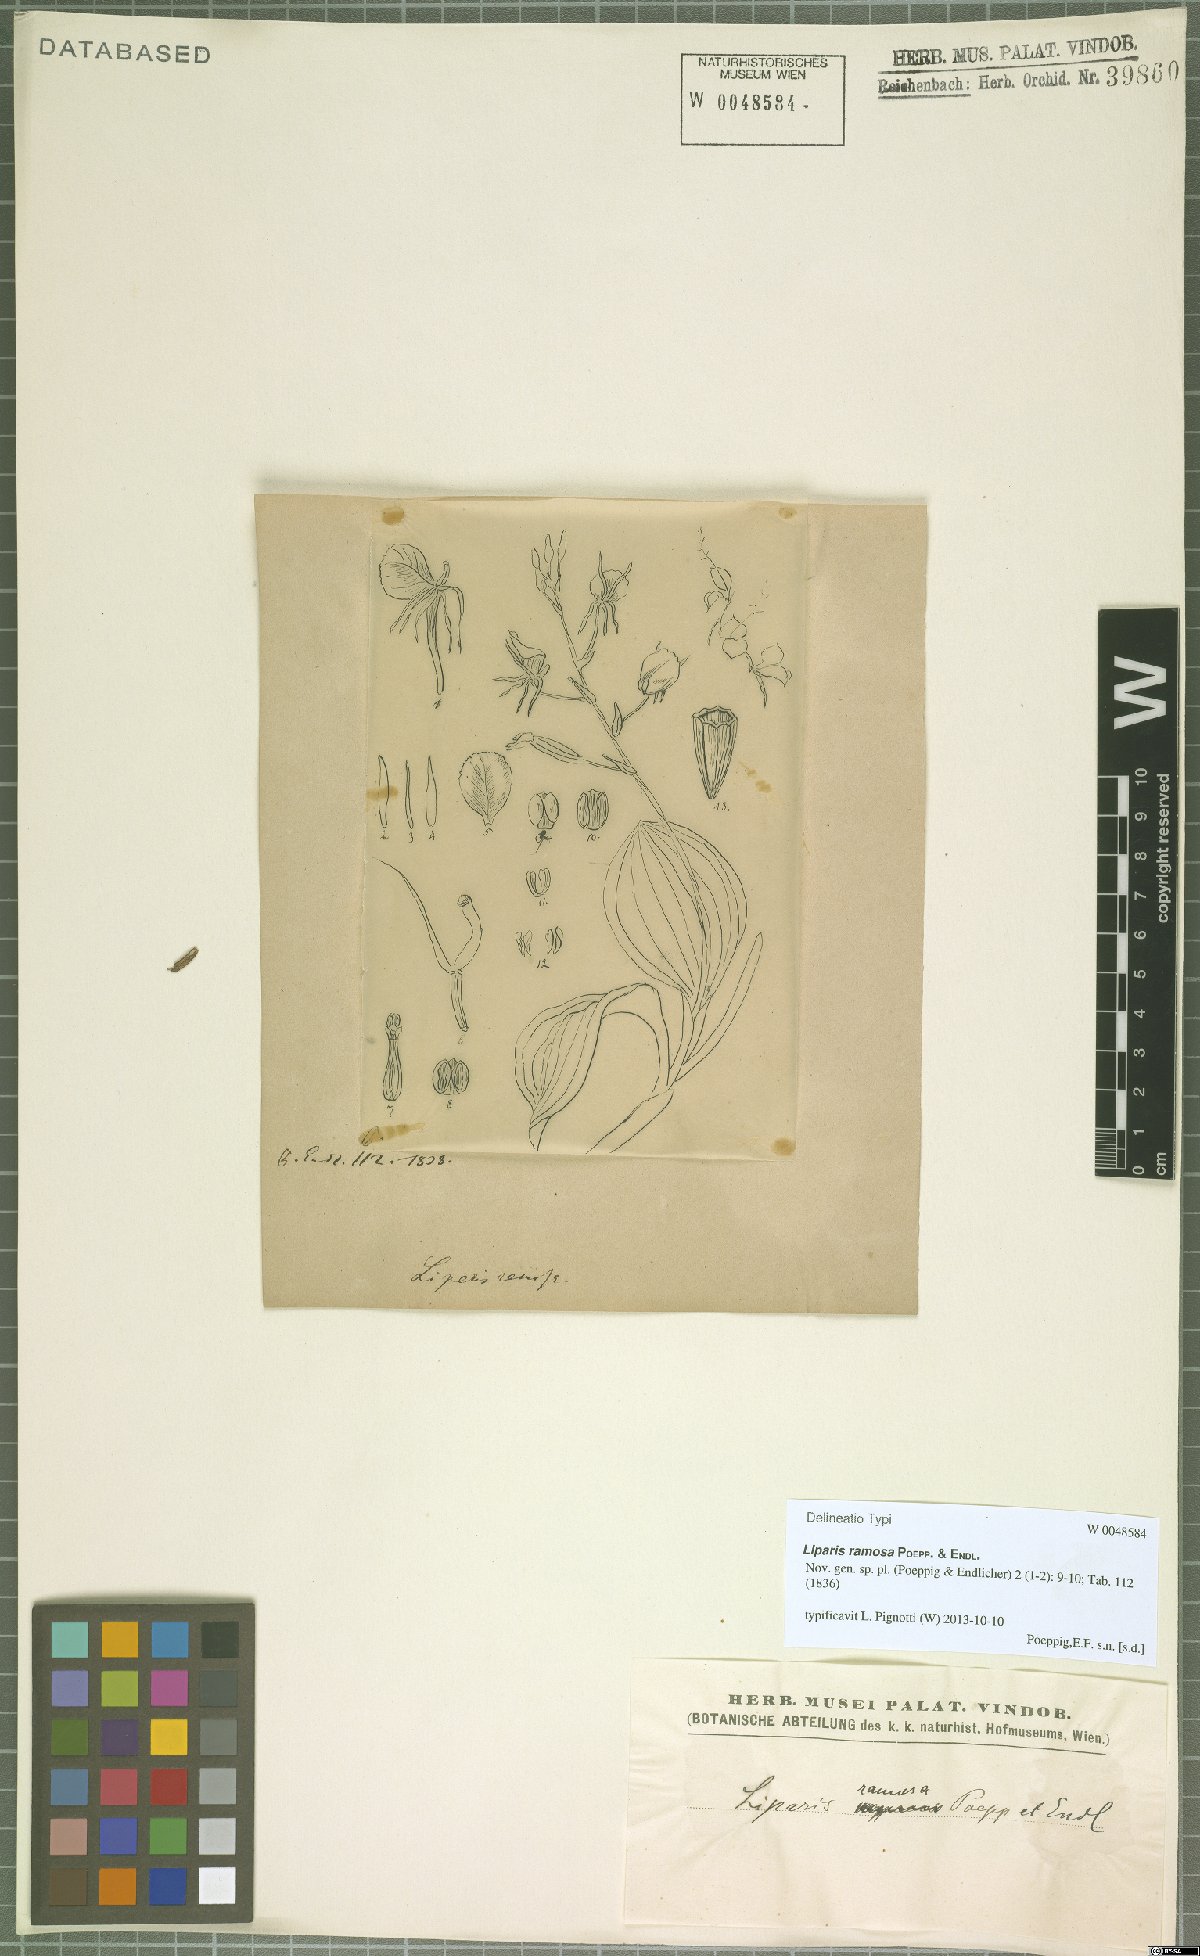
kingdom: Plantae
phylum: Tracheophyta
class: Liliopsida
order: Asparagales
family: Orchidaceae
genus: Liparis
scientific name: Liparis ramosa
